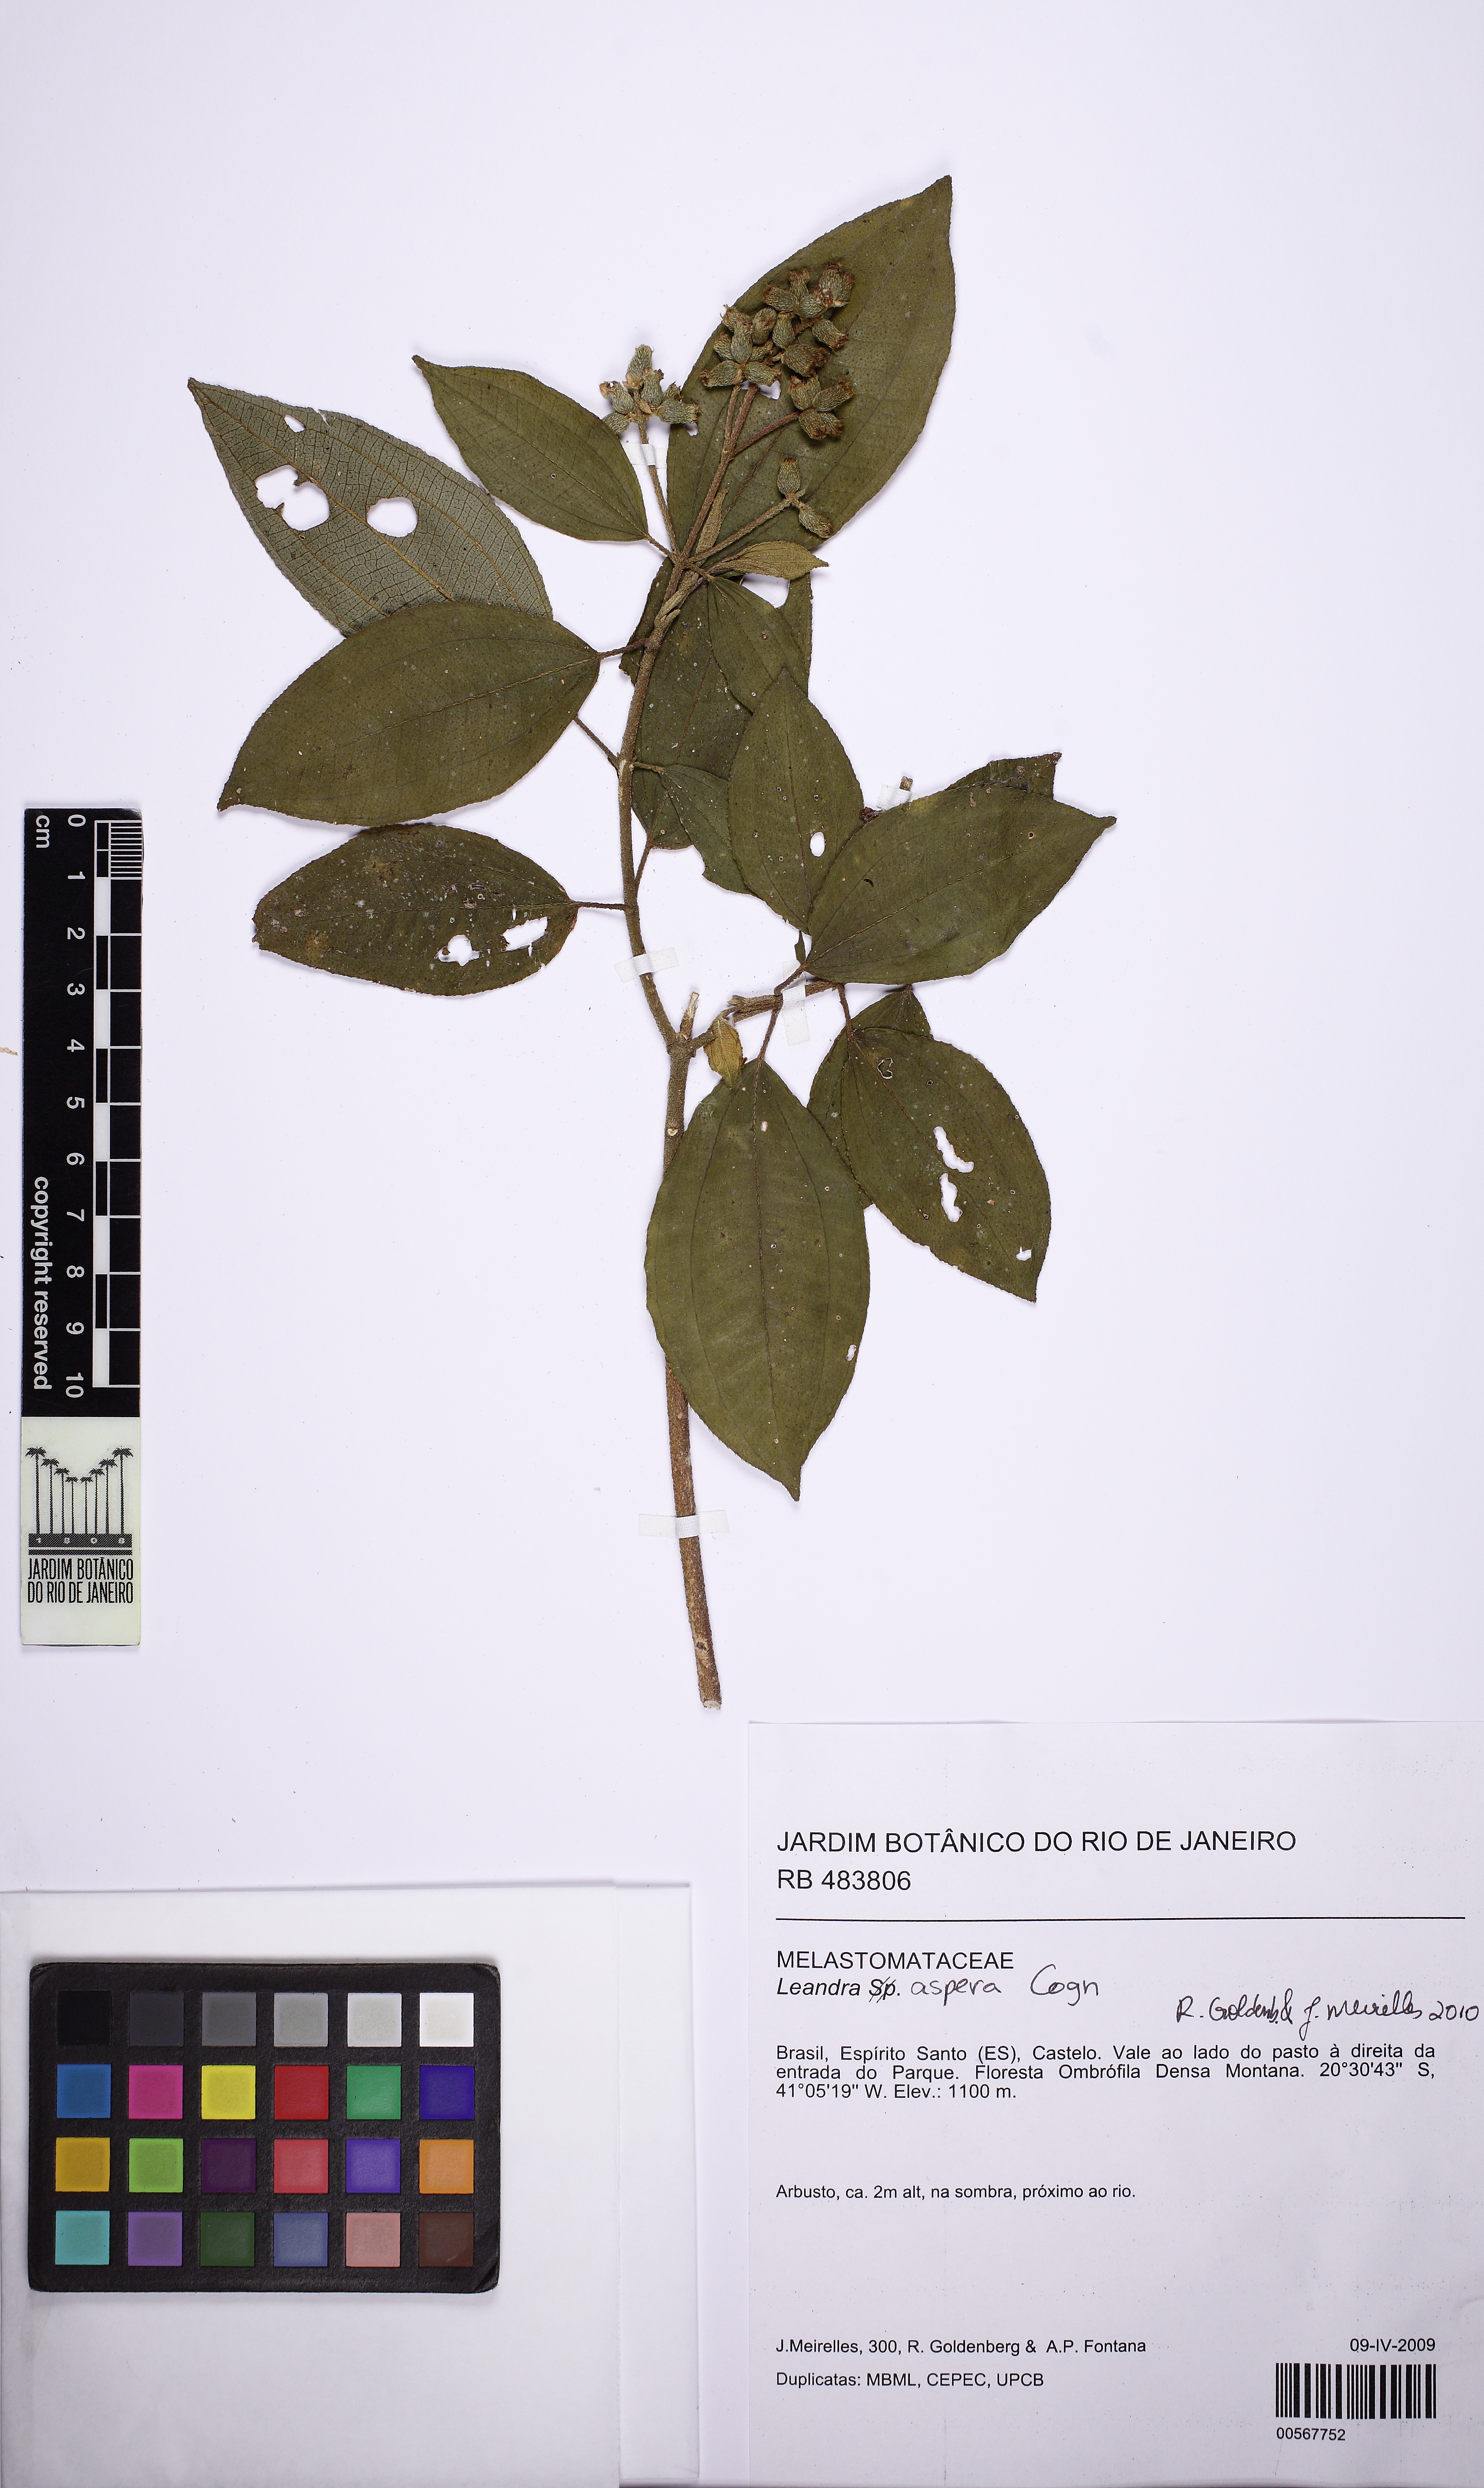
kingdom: Plantae
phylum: Tracheophyta
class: Magnoliopsida
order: Myrtales
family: Melastomataceae
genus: Miconia
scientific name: Miconia
